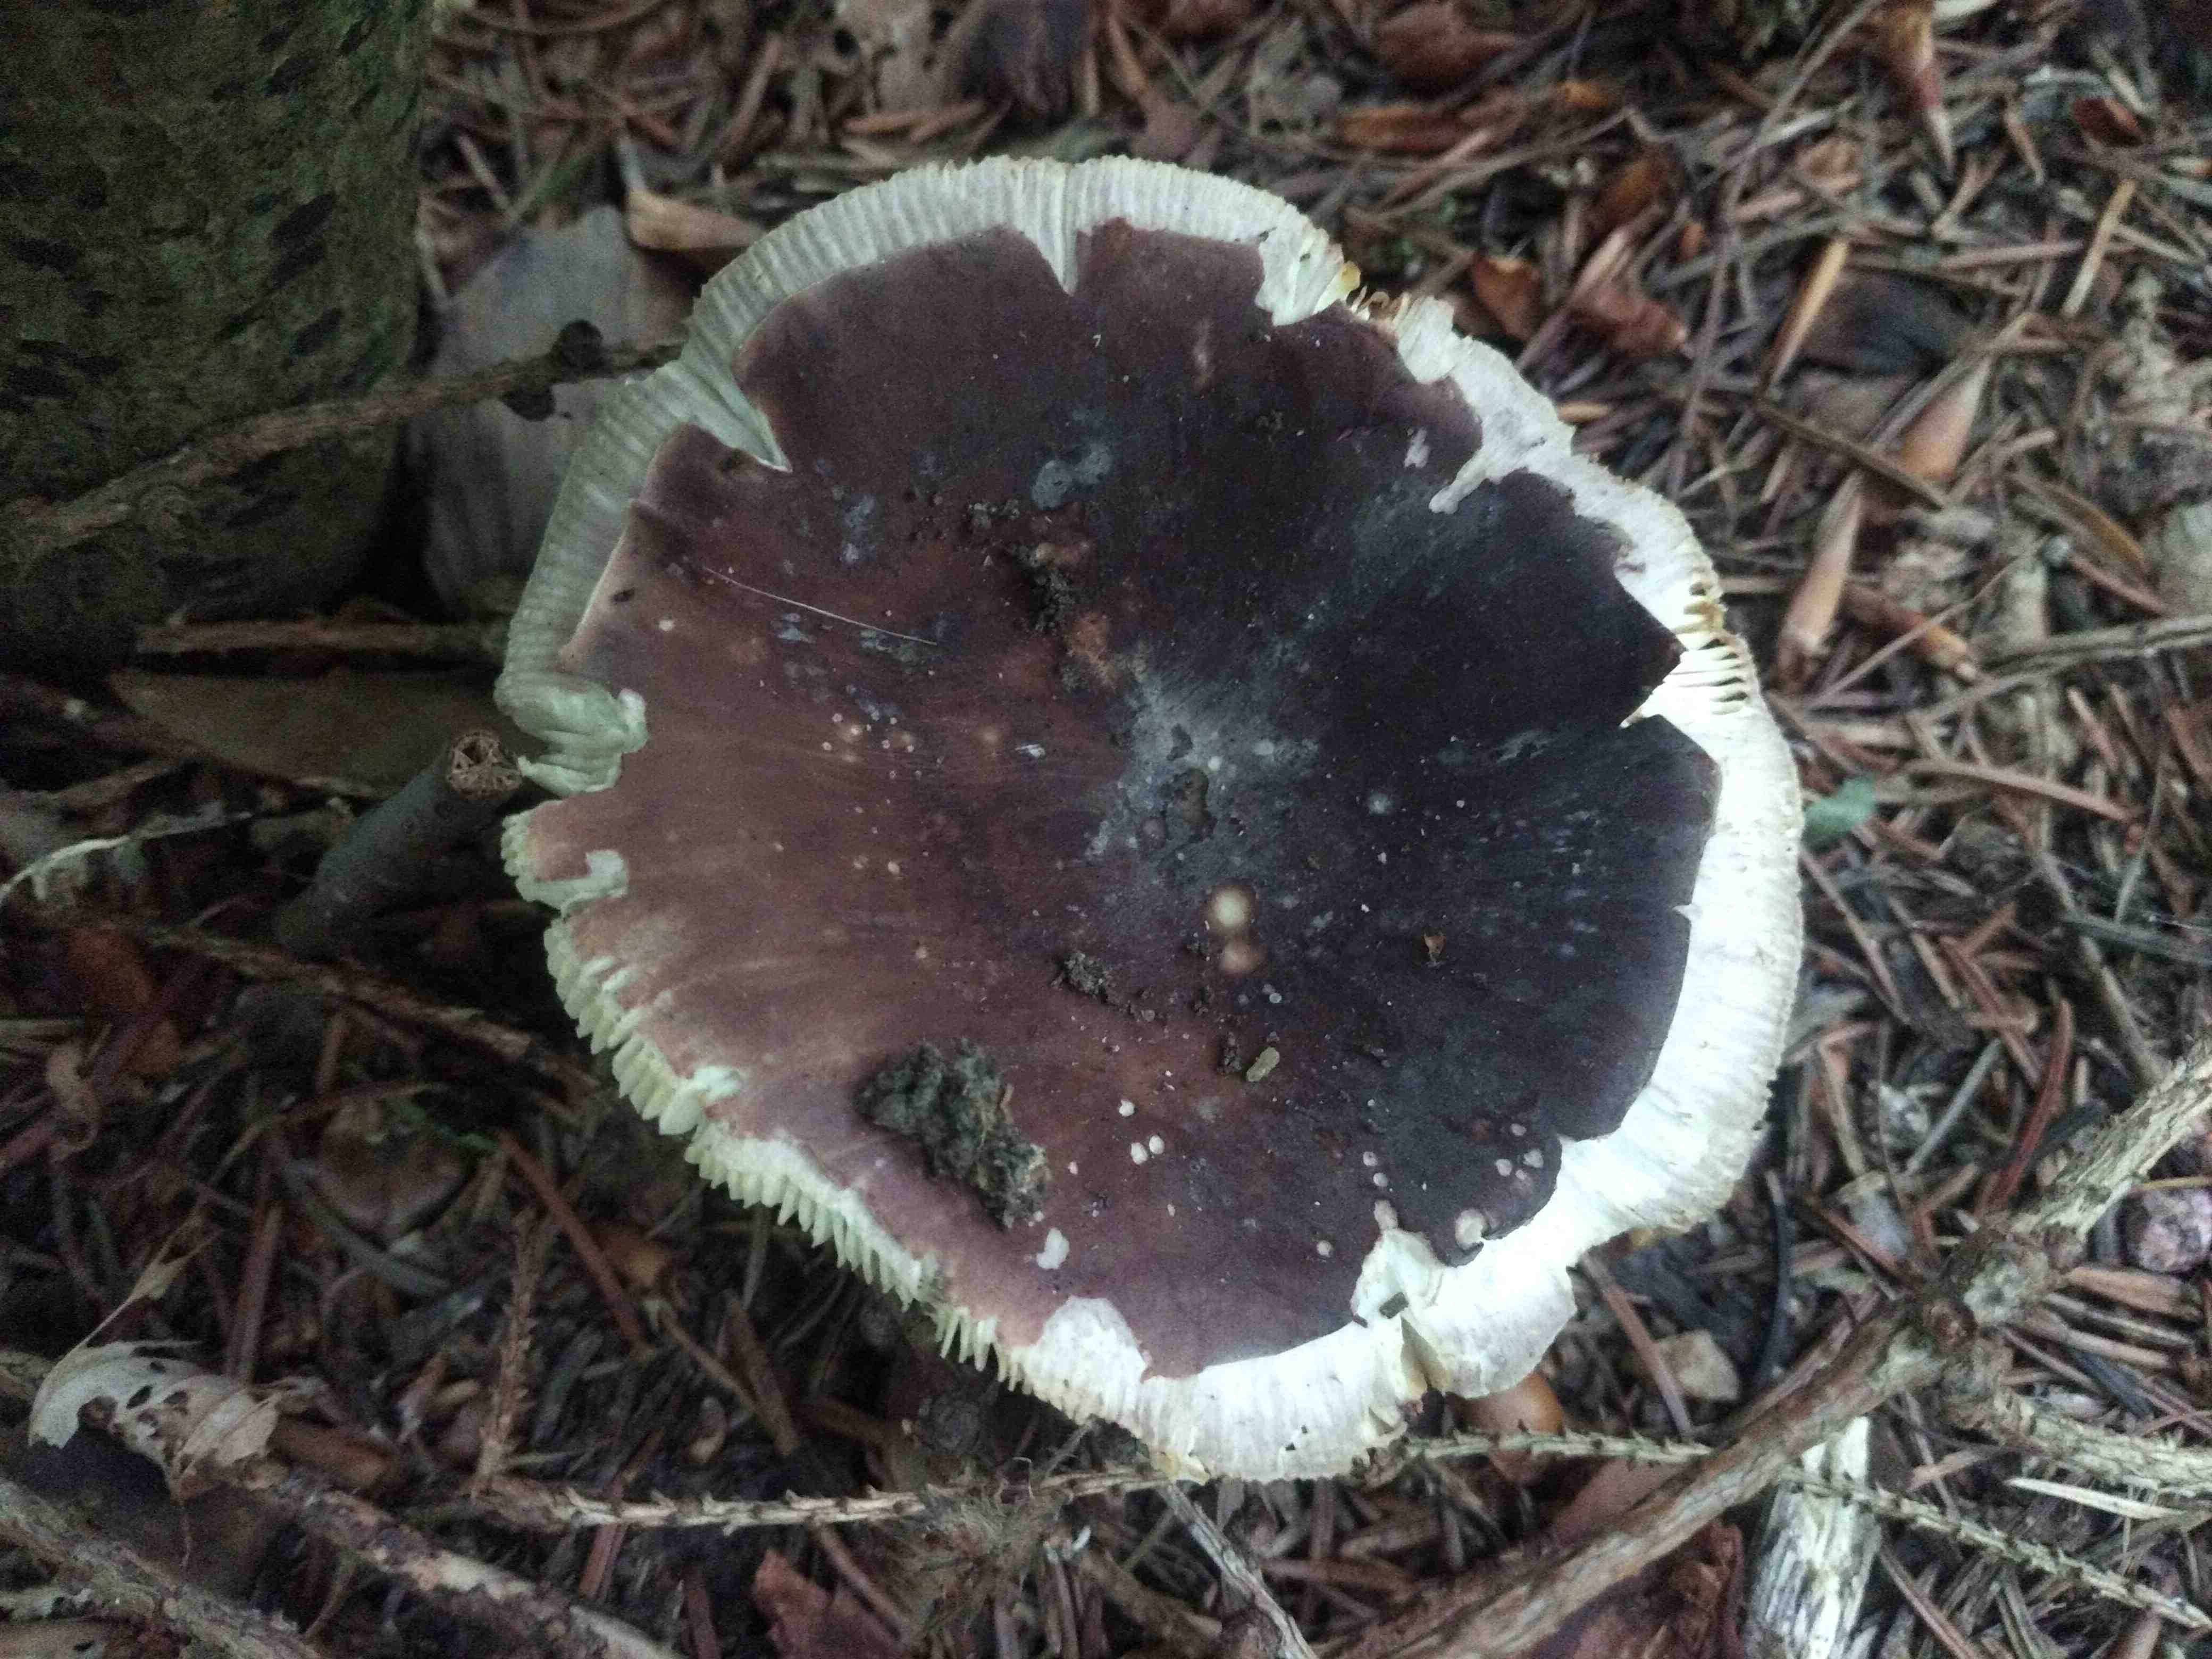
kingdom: Fungi
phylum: Basidiomycota
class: Agaricomycetes
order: Russulales
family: Russulaceae
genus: Russula
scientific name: Russula
